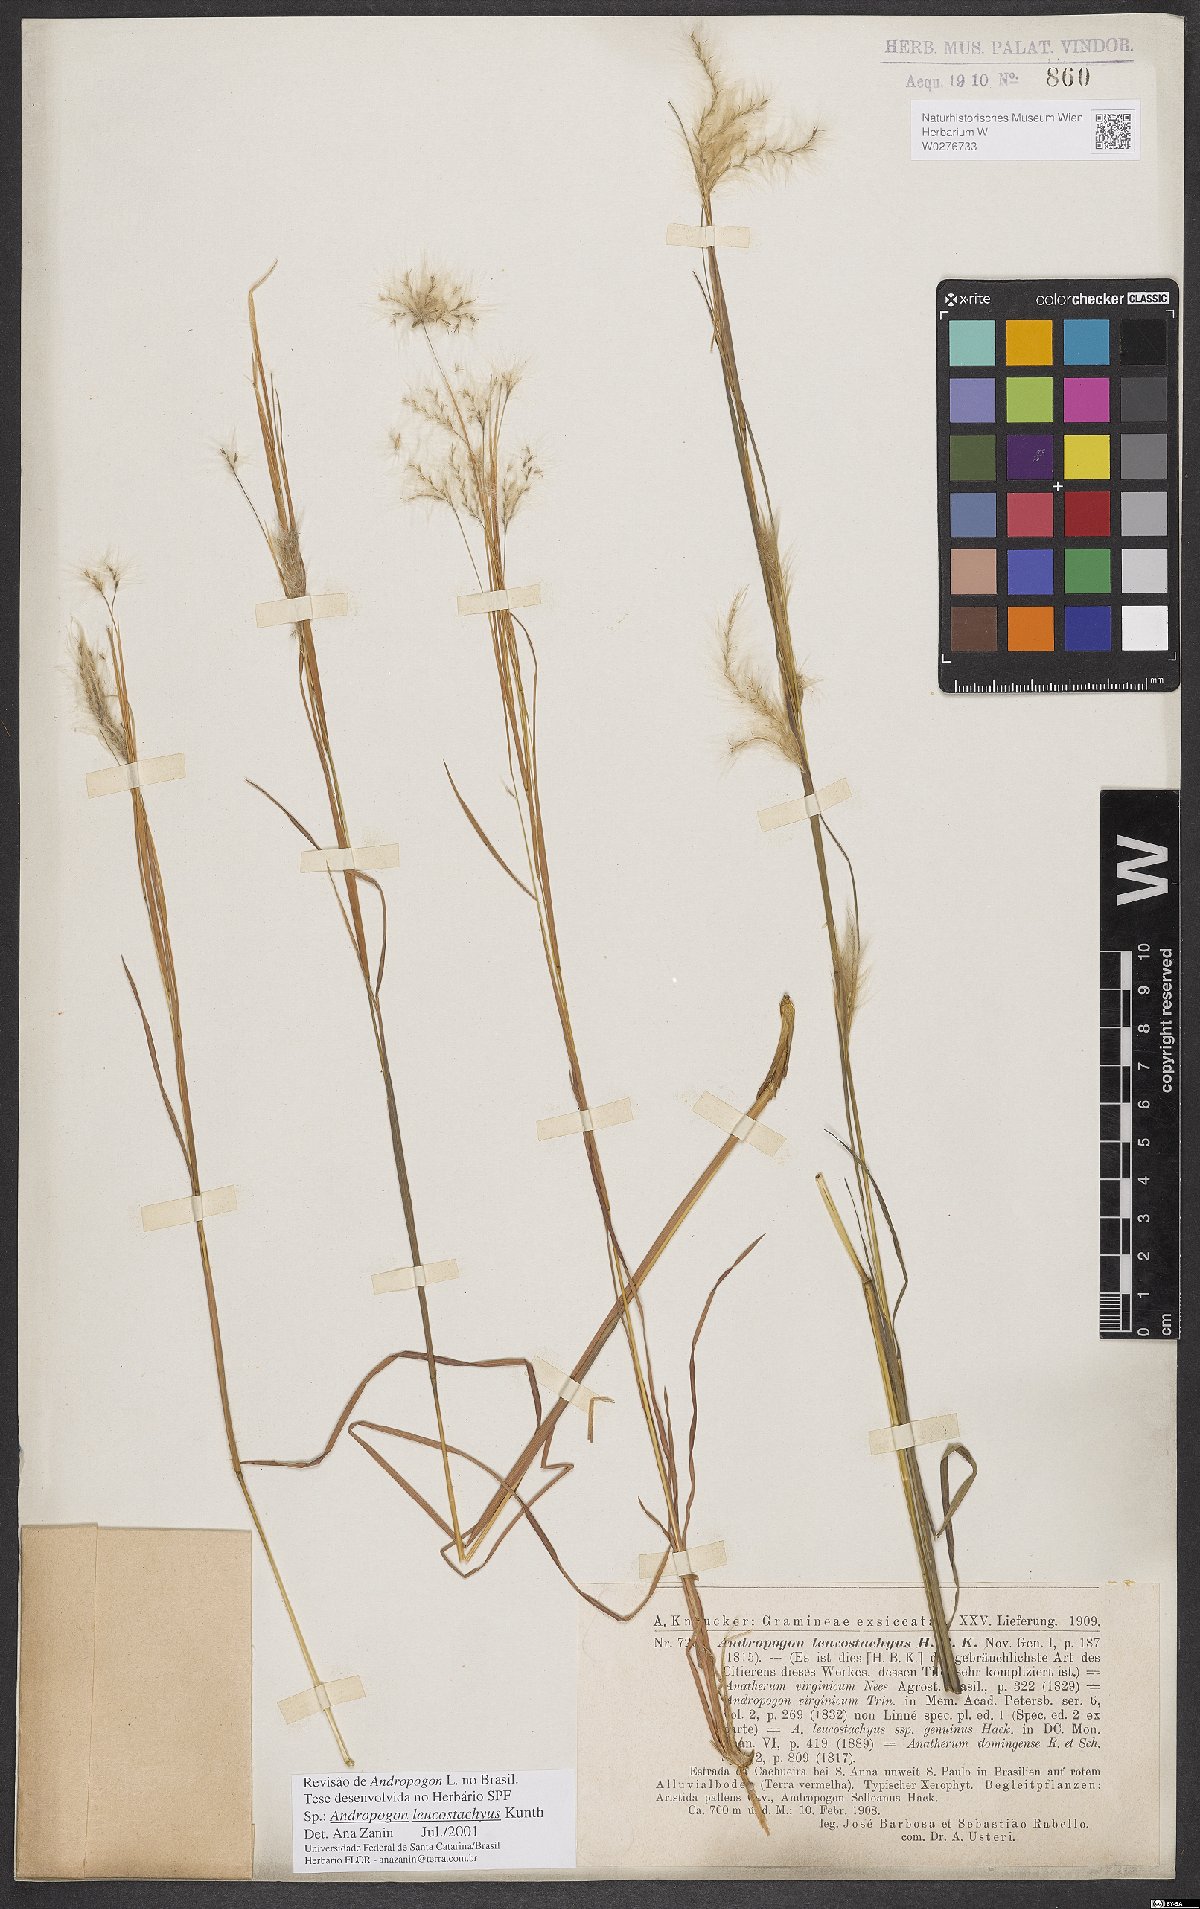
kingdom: Plantae
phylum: Tracheophyta
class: Liliopsida
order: Poales
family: Poaceae
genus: Andropogon
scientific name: Andropogon leucostachyus
